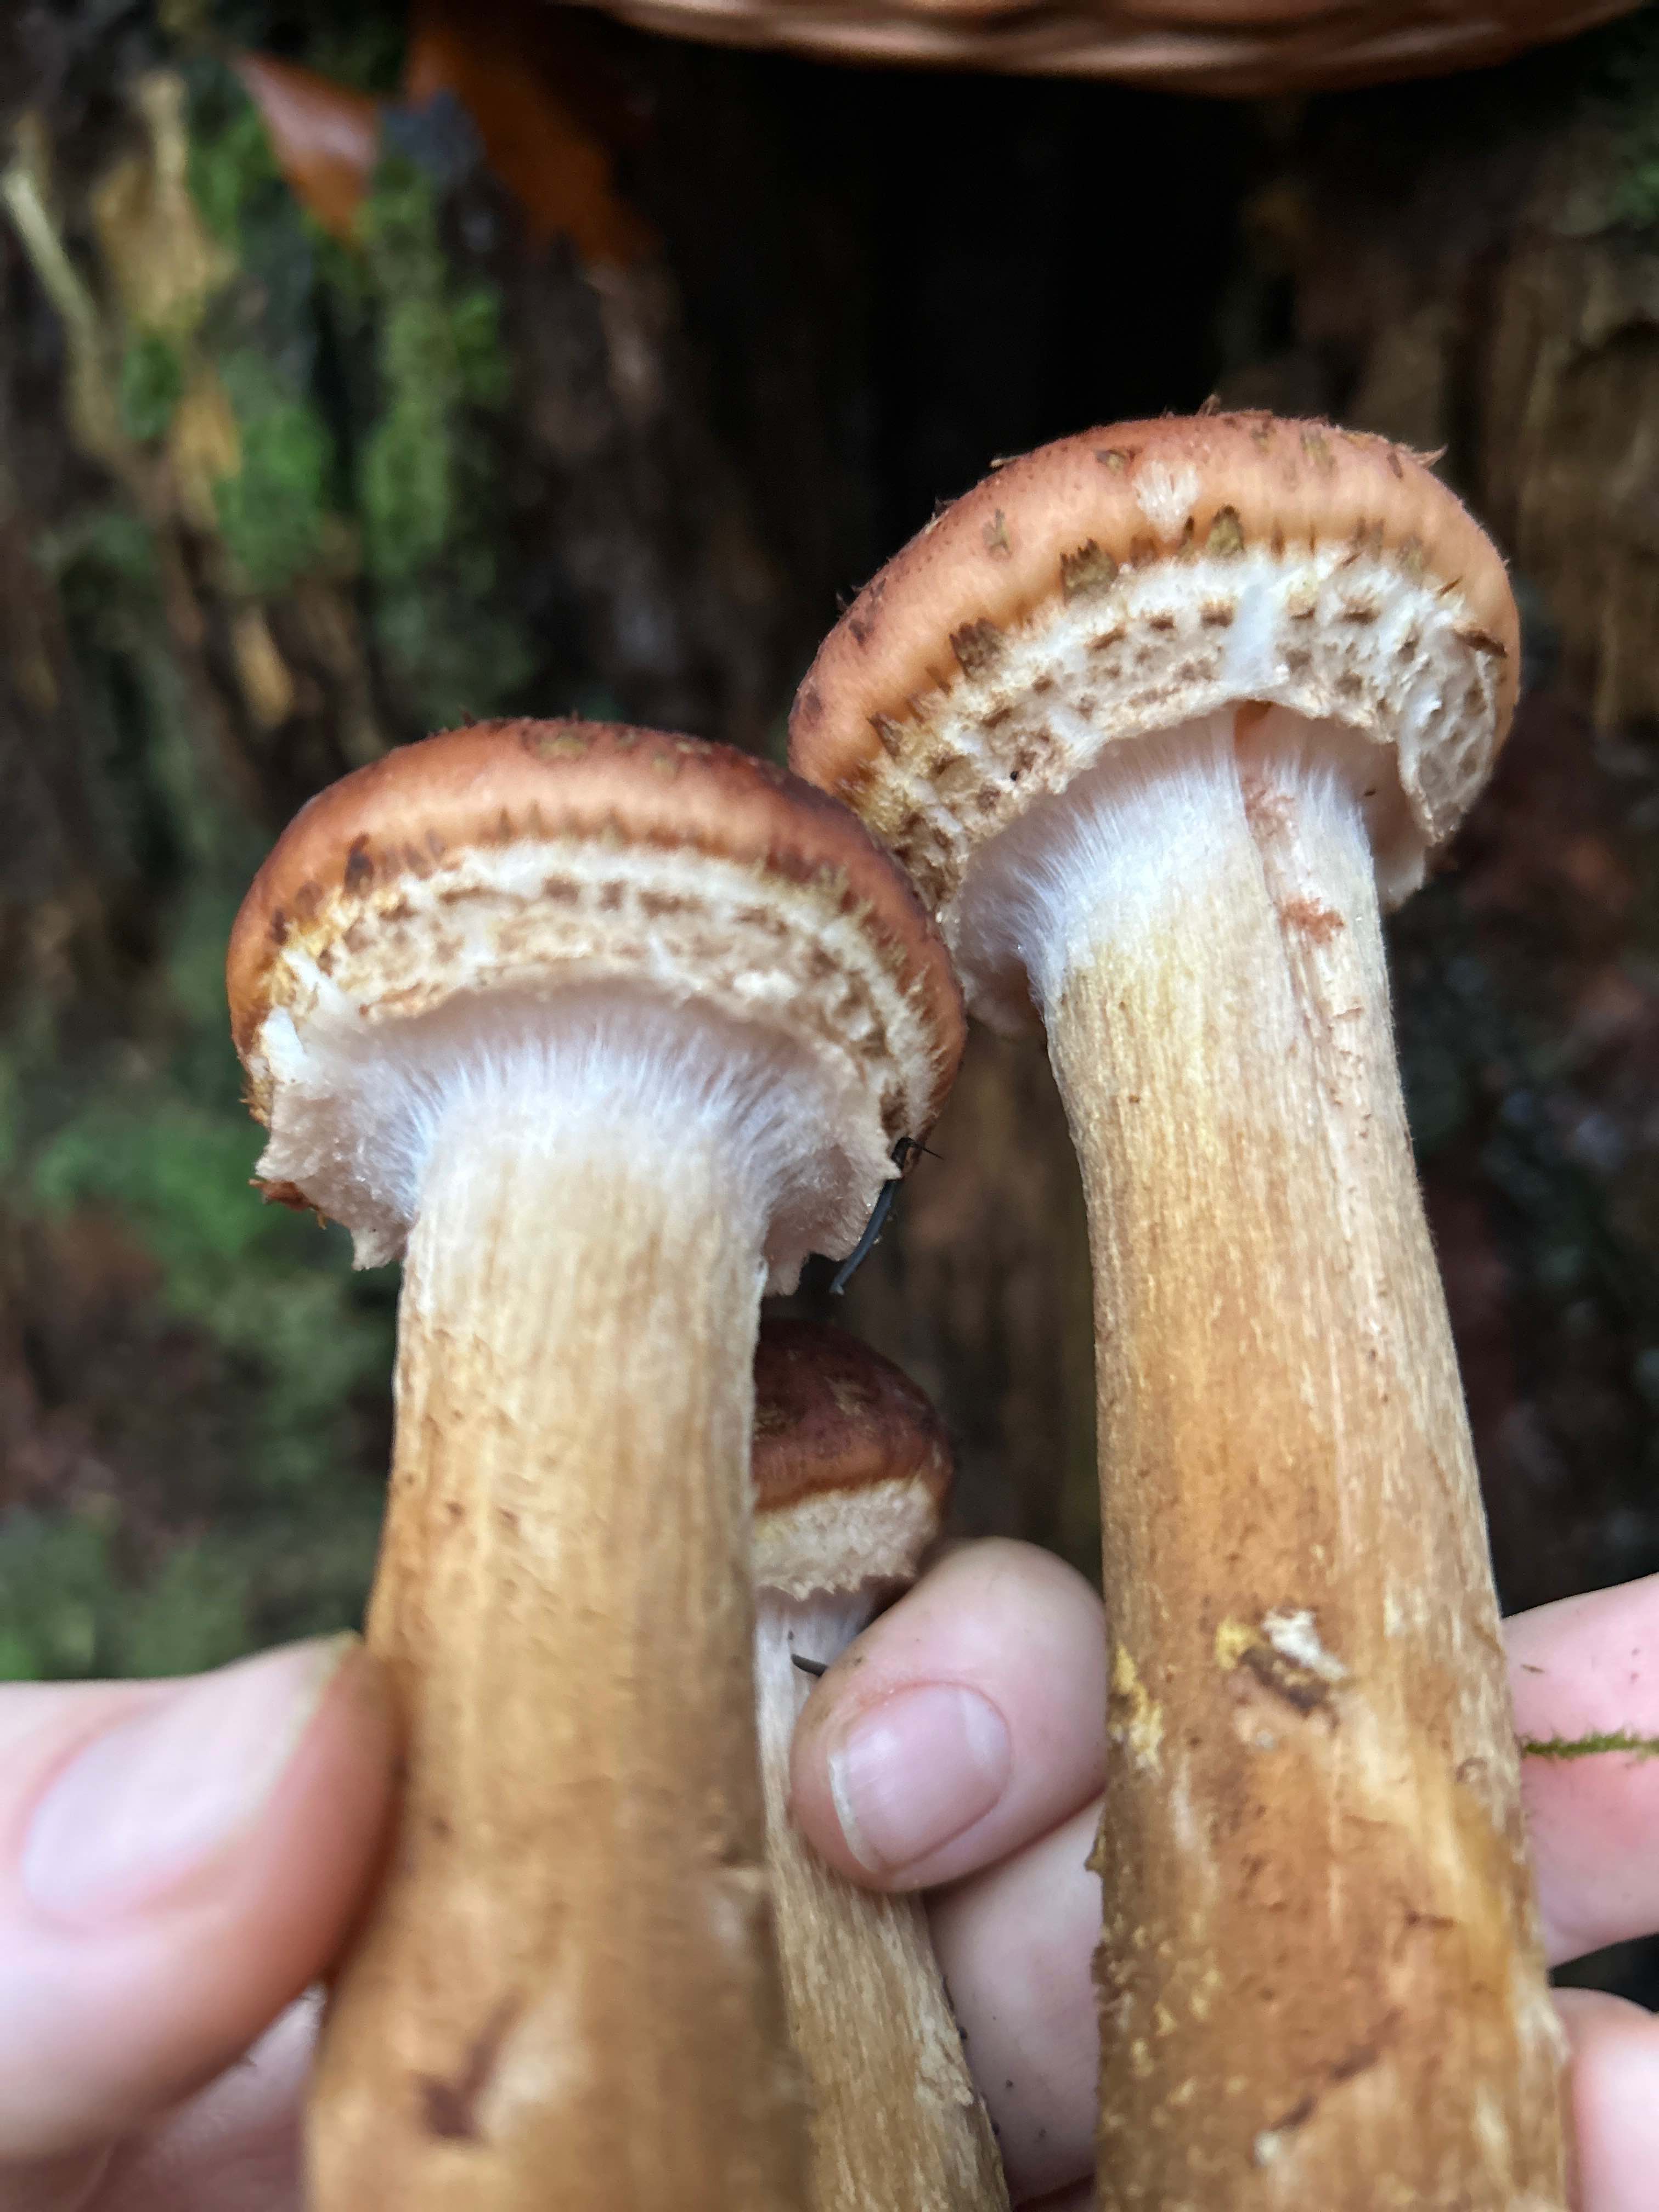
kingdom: Fungi
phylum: Basidiomycota
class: Agaricomycetes
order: Agaricales
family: Physalacriaceae
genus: Armillaria
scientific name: Armillaria ostoyae
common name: mørk honningsvamp
